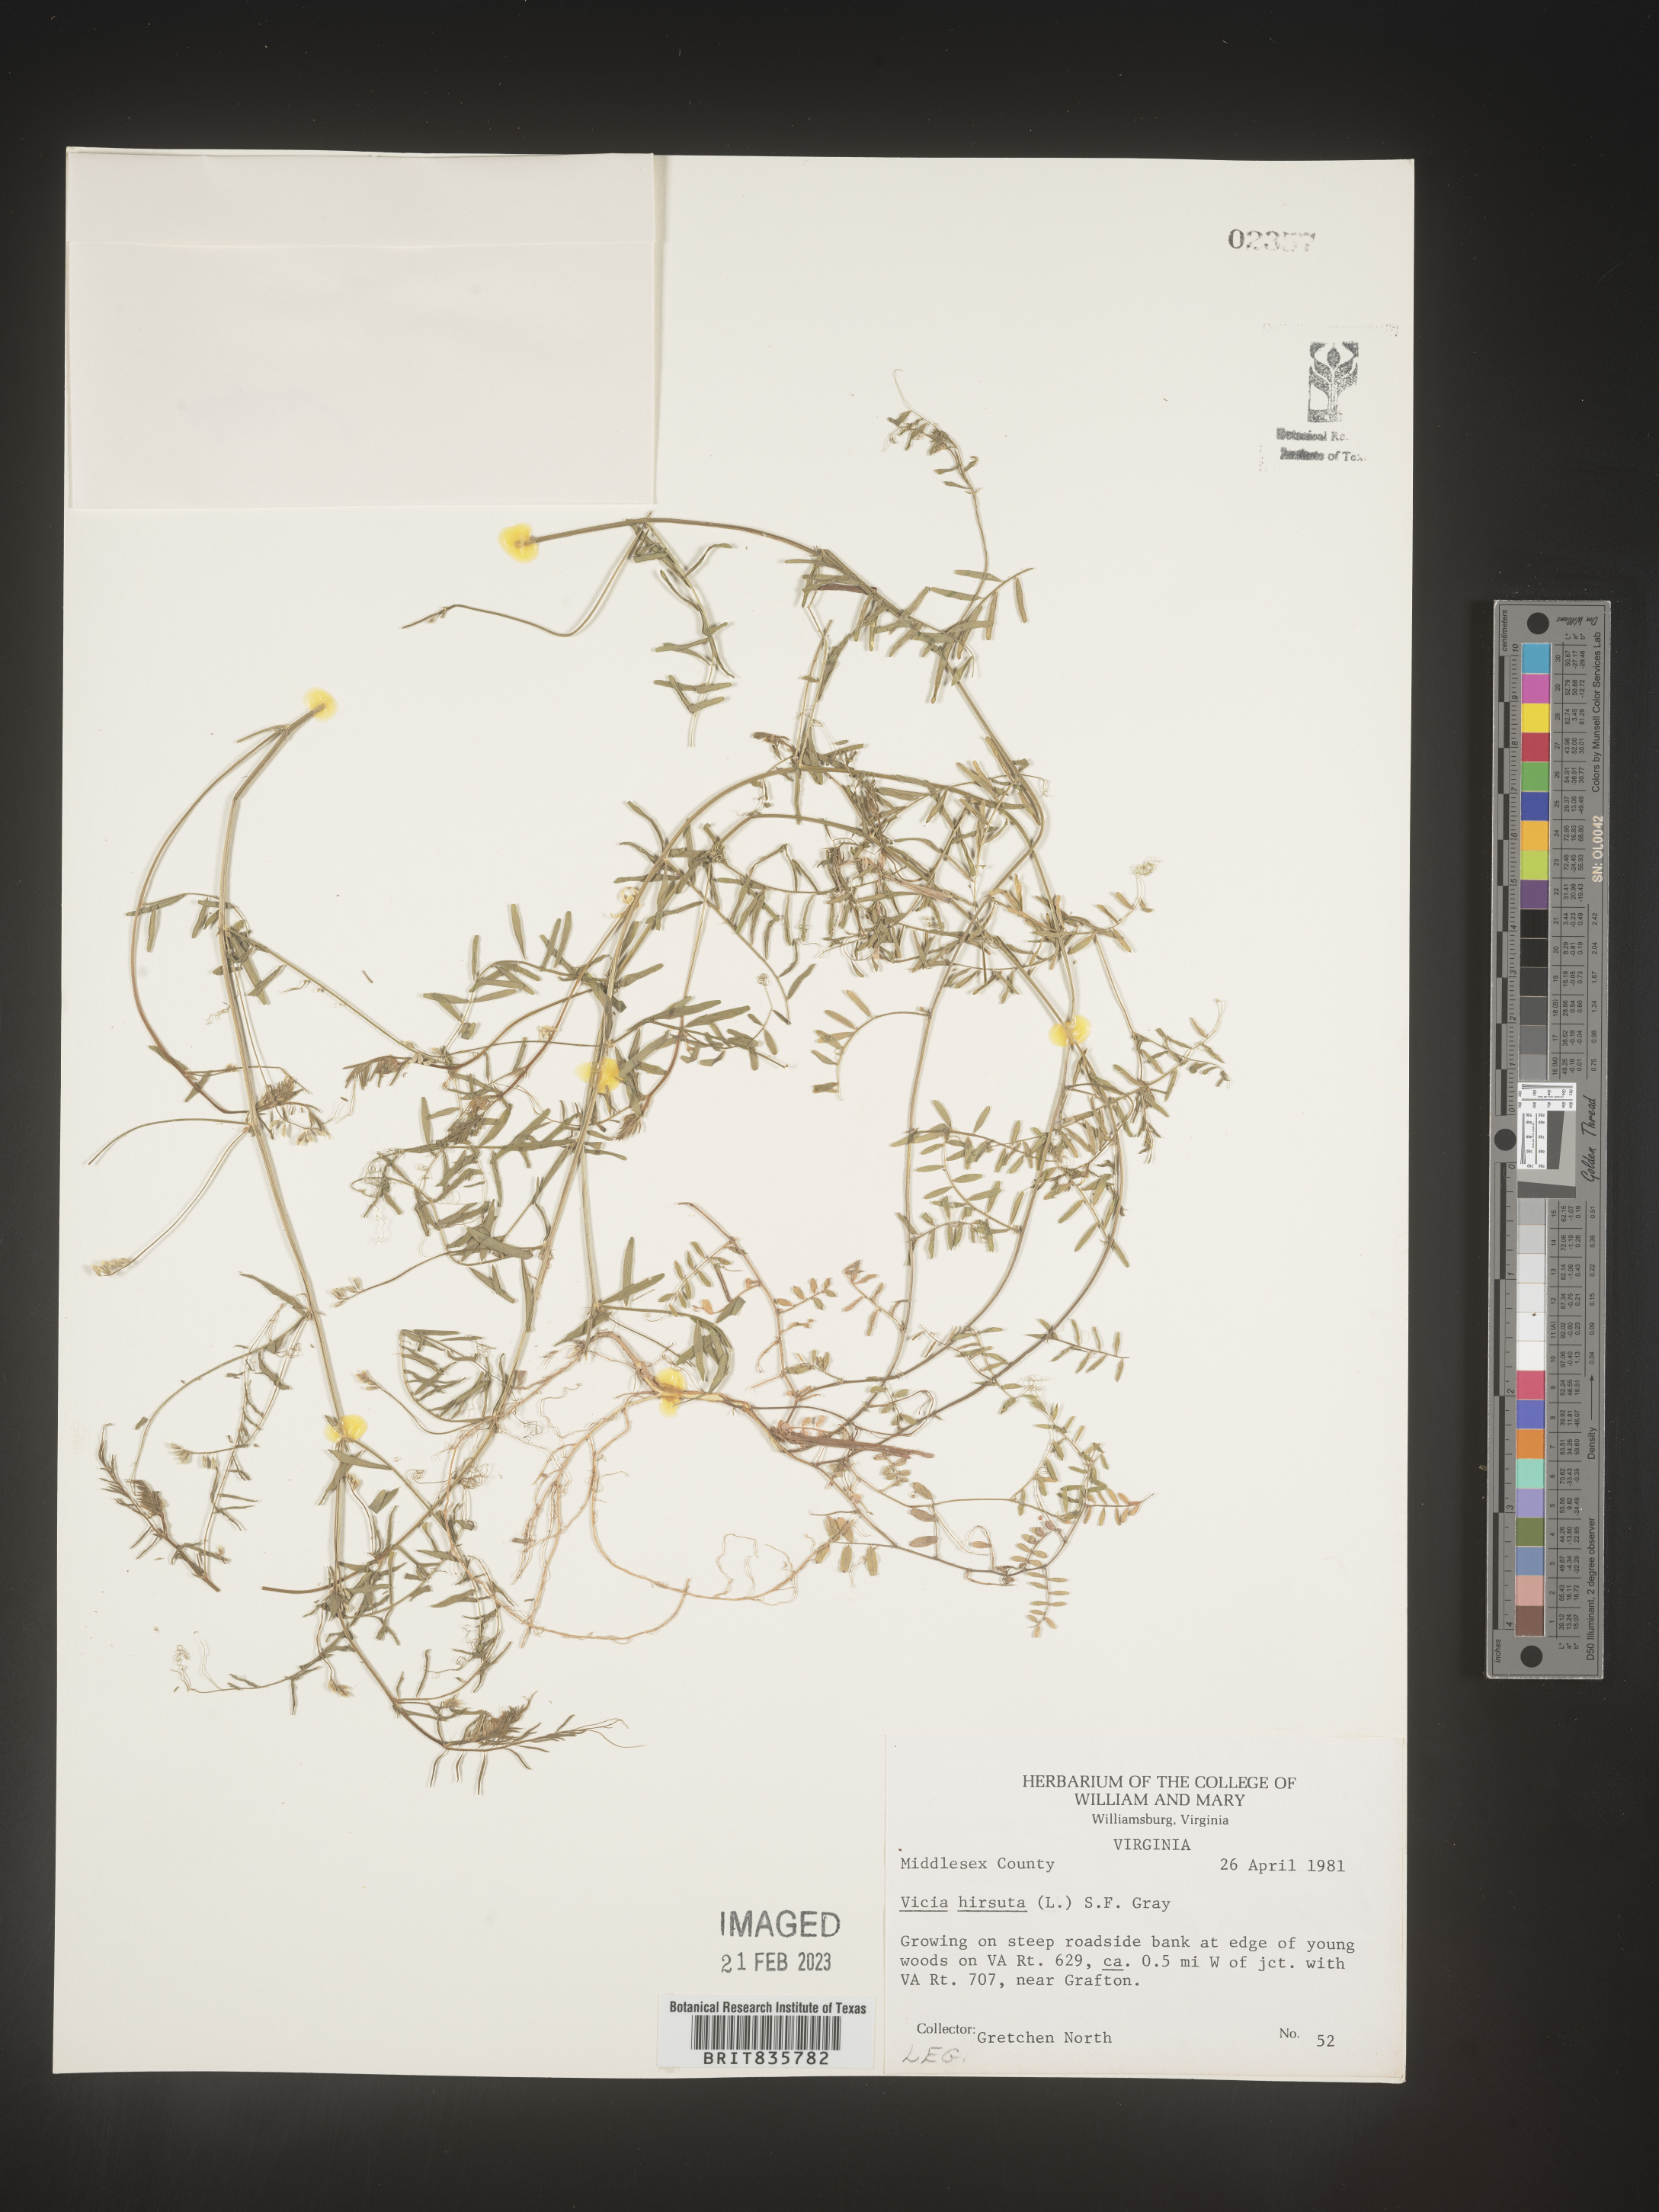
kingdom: Plantae
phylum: Tracheophyta
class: Magnoliopsida
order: Fabales
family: Fabaceae
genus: Vicia
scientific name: Vicia
